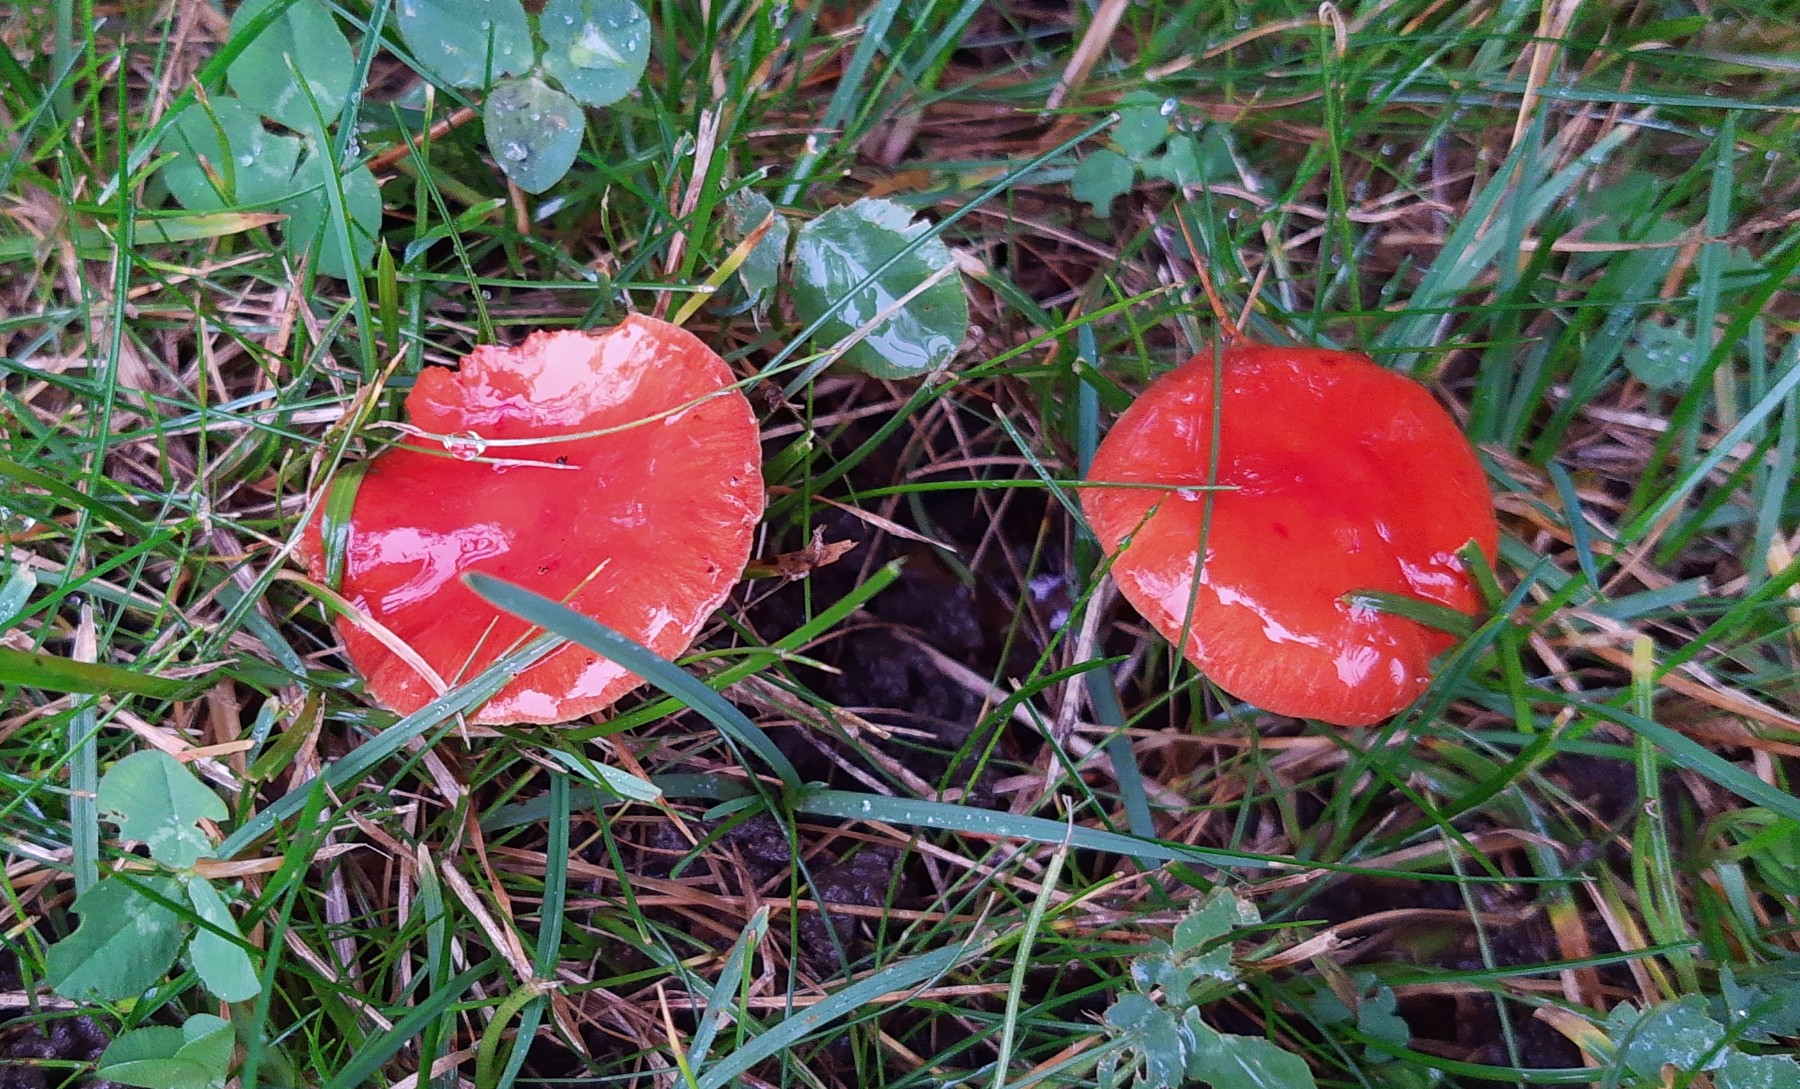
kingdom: Fungi
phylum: Basidiomycota
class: Agaricomycetes
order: Agaricales
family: Strophariaceae
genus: Leratiomyces
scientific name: Leratiomyces ceres
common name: orange bredblad
